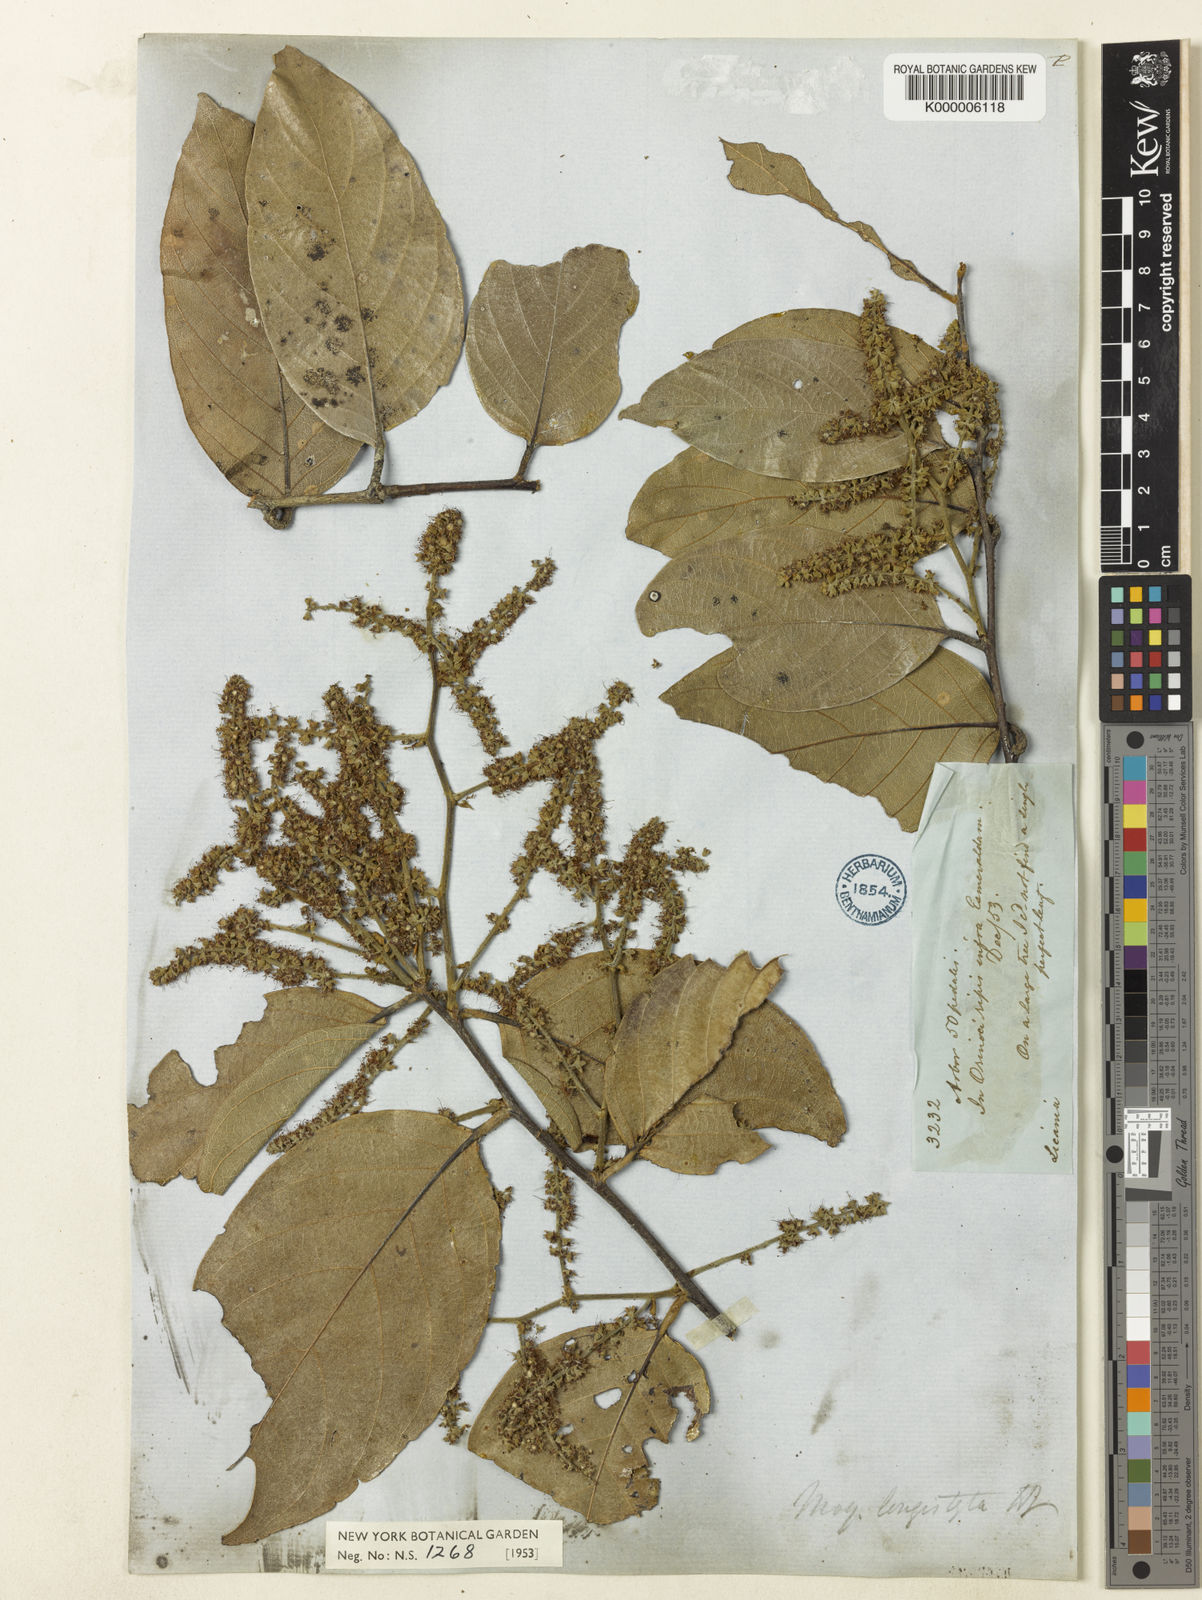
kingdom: Plantae
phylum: Tracheophyta
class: Magnoliopsida
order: Malpighiales
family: Chrysobalanaceae
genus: Leptobalanus
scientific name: Leptobalanus longistylus
